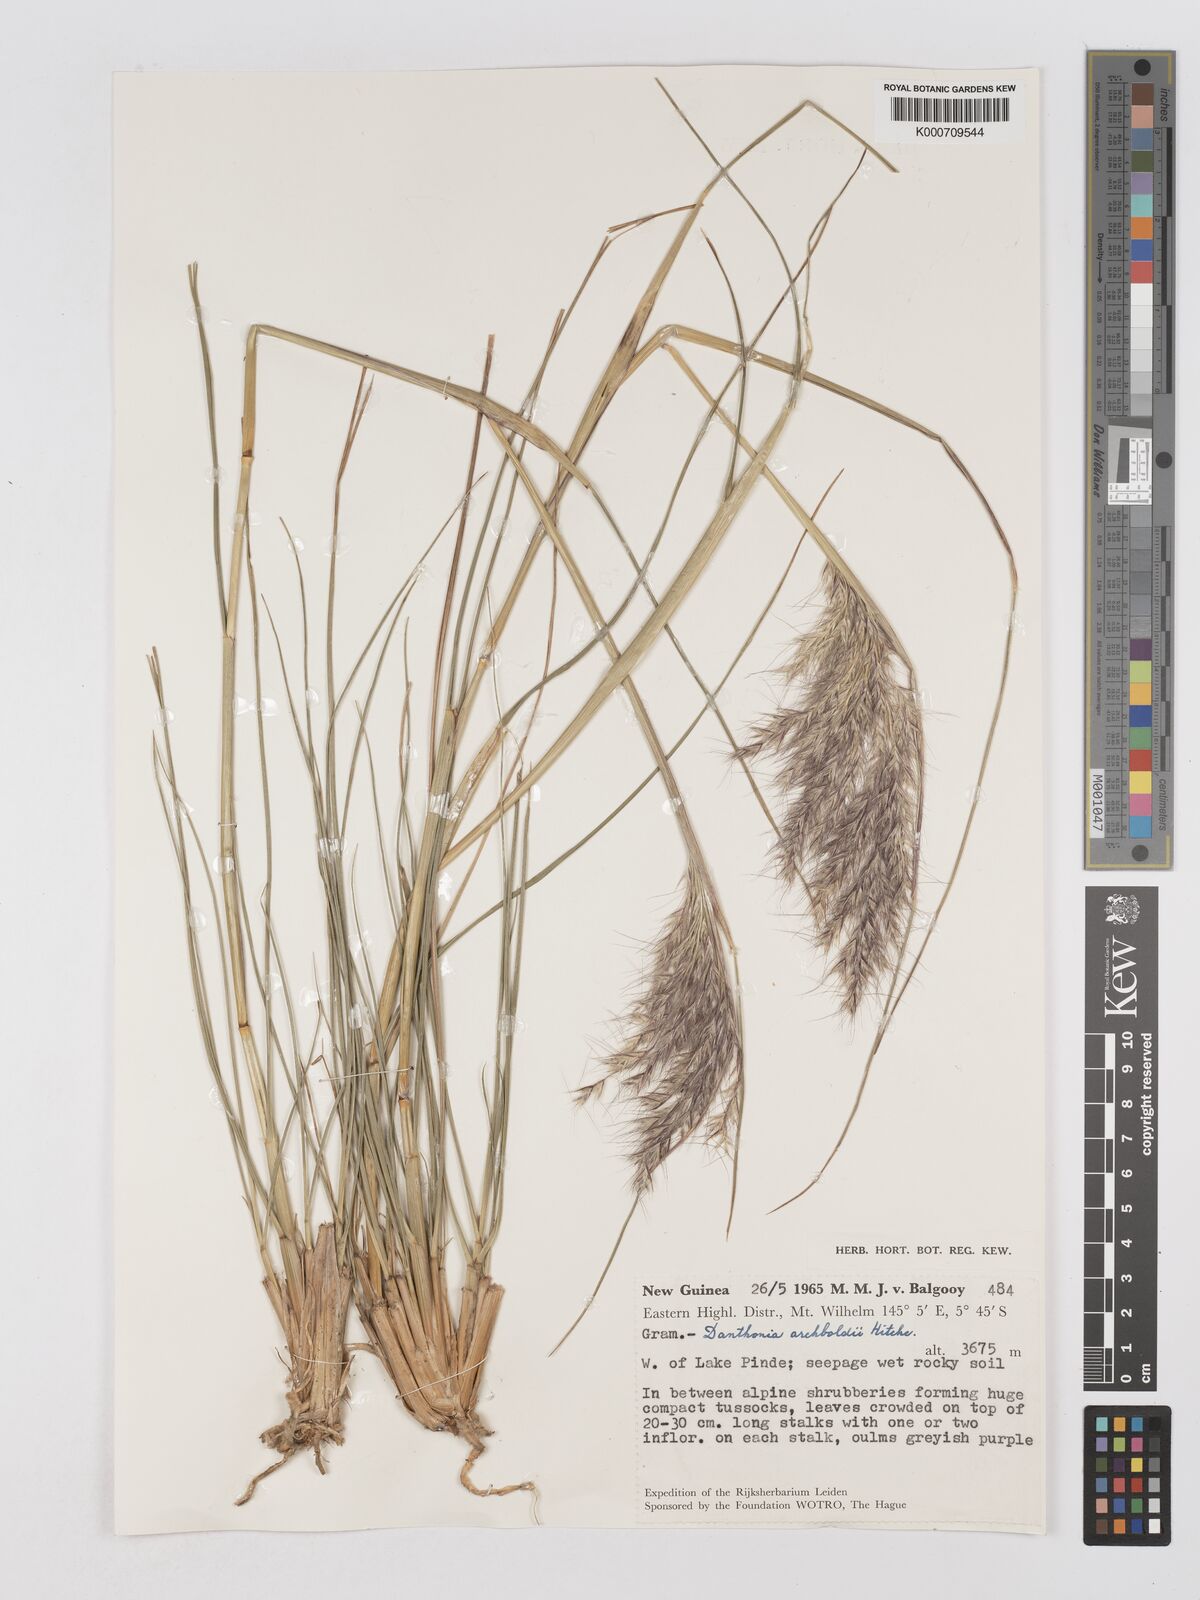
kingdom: Plantae
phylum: Tracheophyta
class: Liliopsida
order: Poales
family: Poaceae
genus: Chimaerochloa
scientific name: Chimaerochloa archboldii
